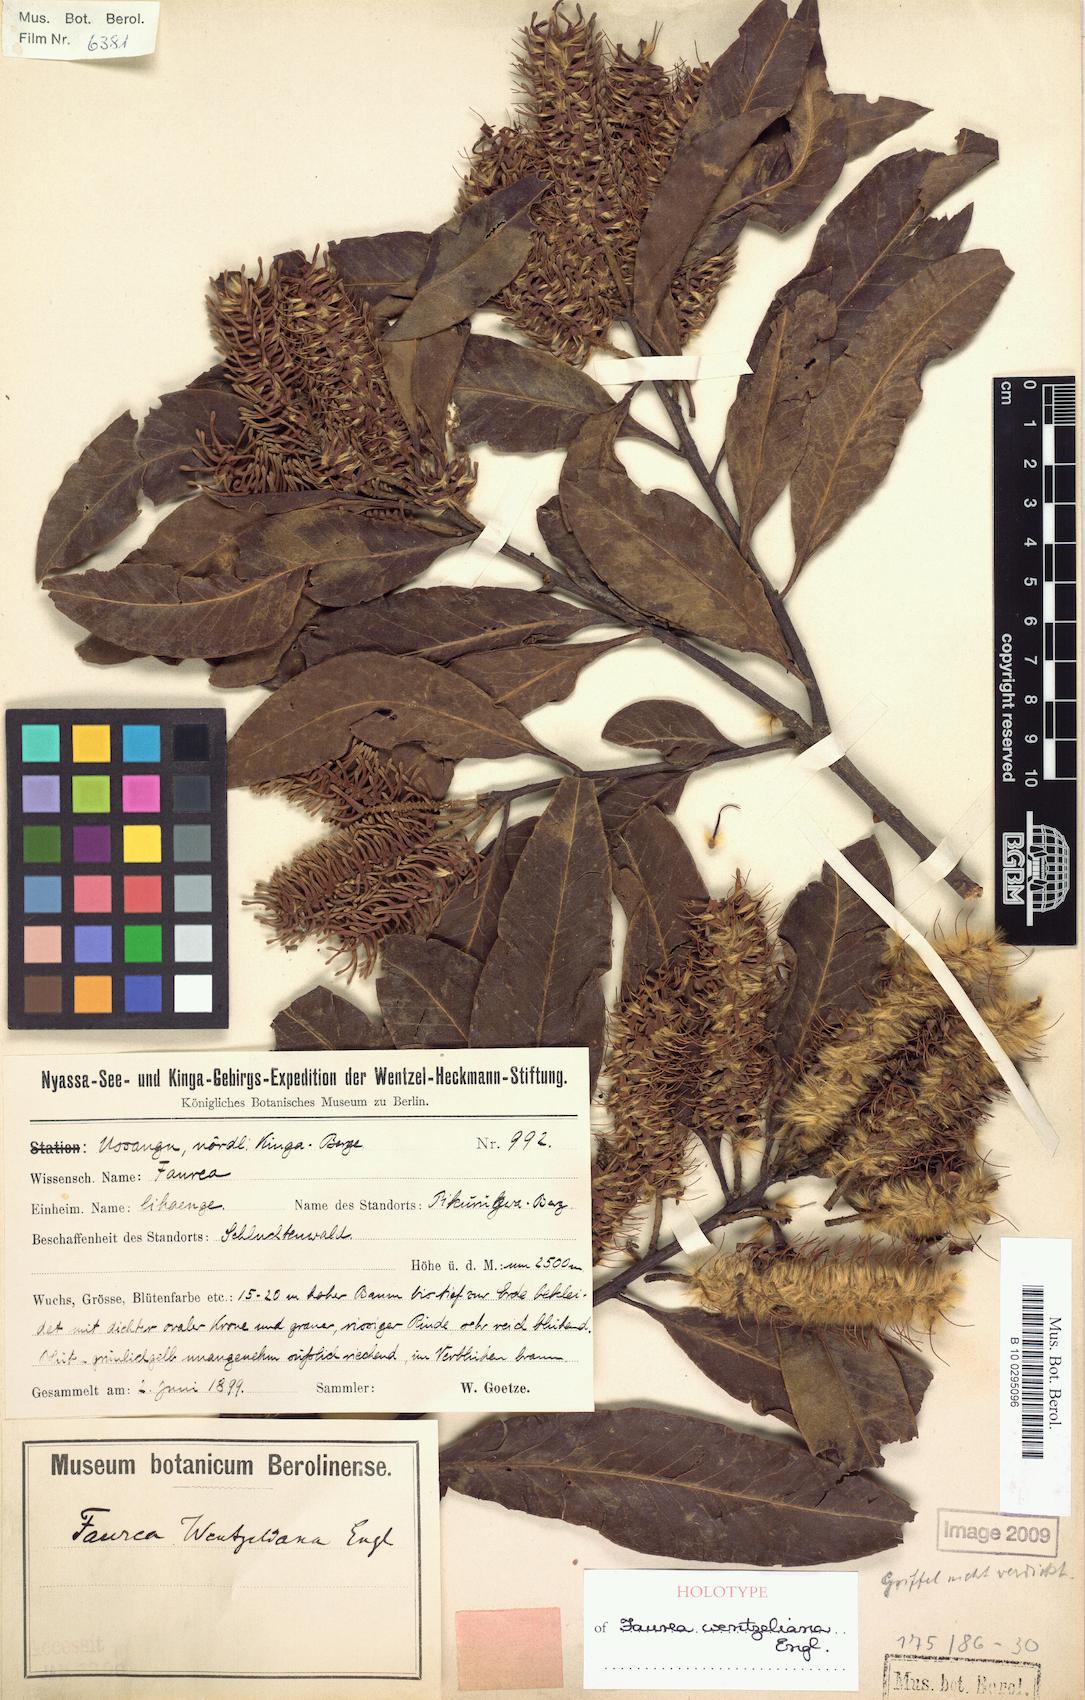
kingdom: Plantae
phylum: Tracheophyta
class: Magnoliopsida
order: Proteales
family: Proteaceae
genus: Faurea
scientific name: Faurea wentzeliana
